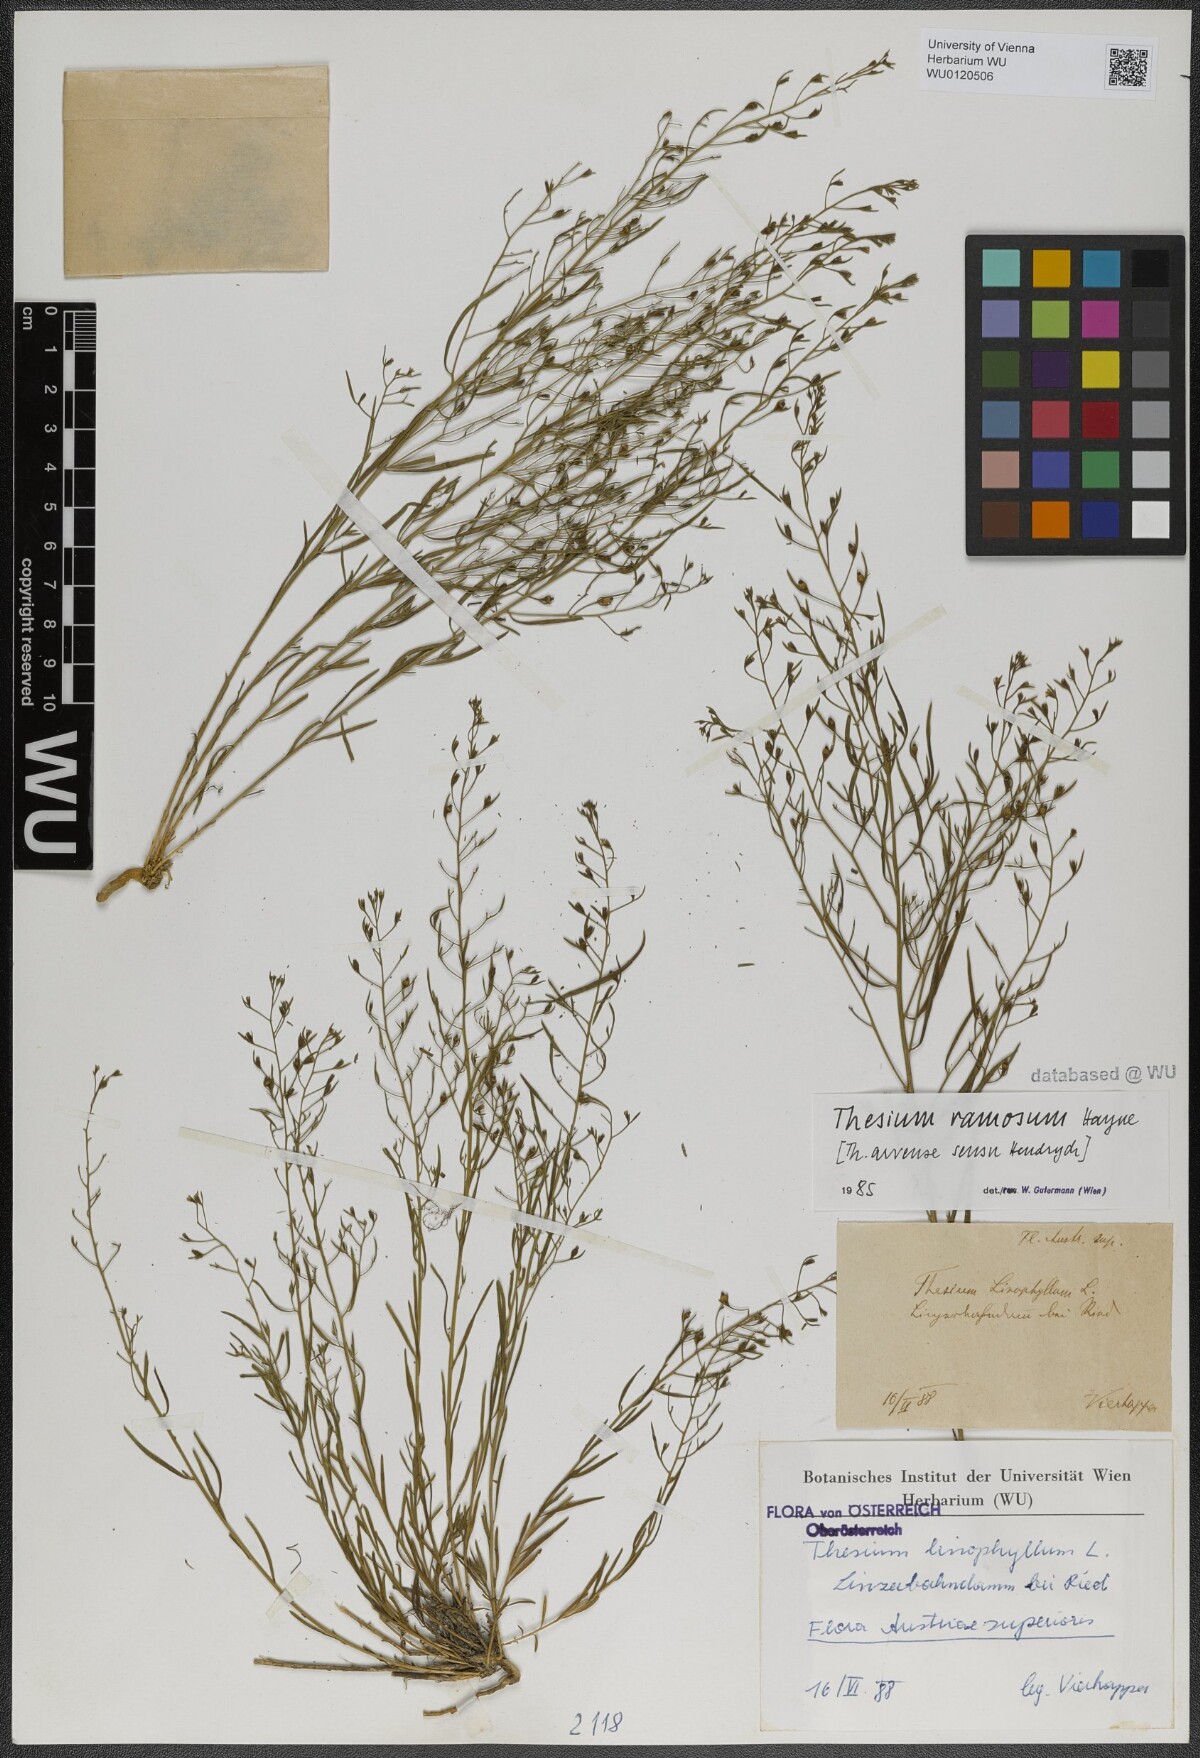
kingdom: Plantae
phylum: Tracheophyta
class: Magnoliopsida
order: Santalales
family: Thesiaceae
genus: Thesium
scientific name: Thesium ramosum
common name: Field thesium
